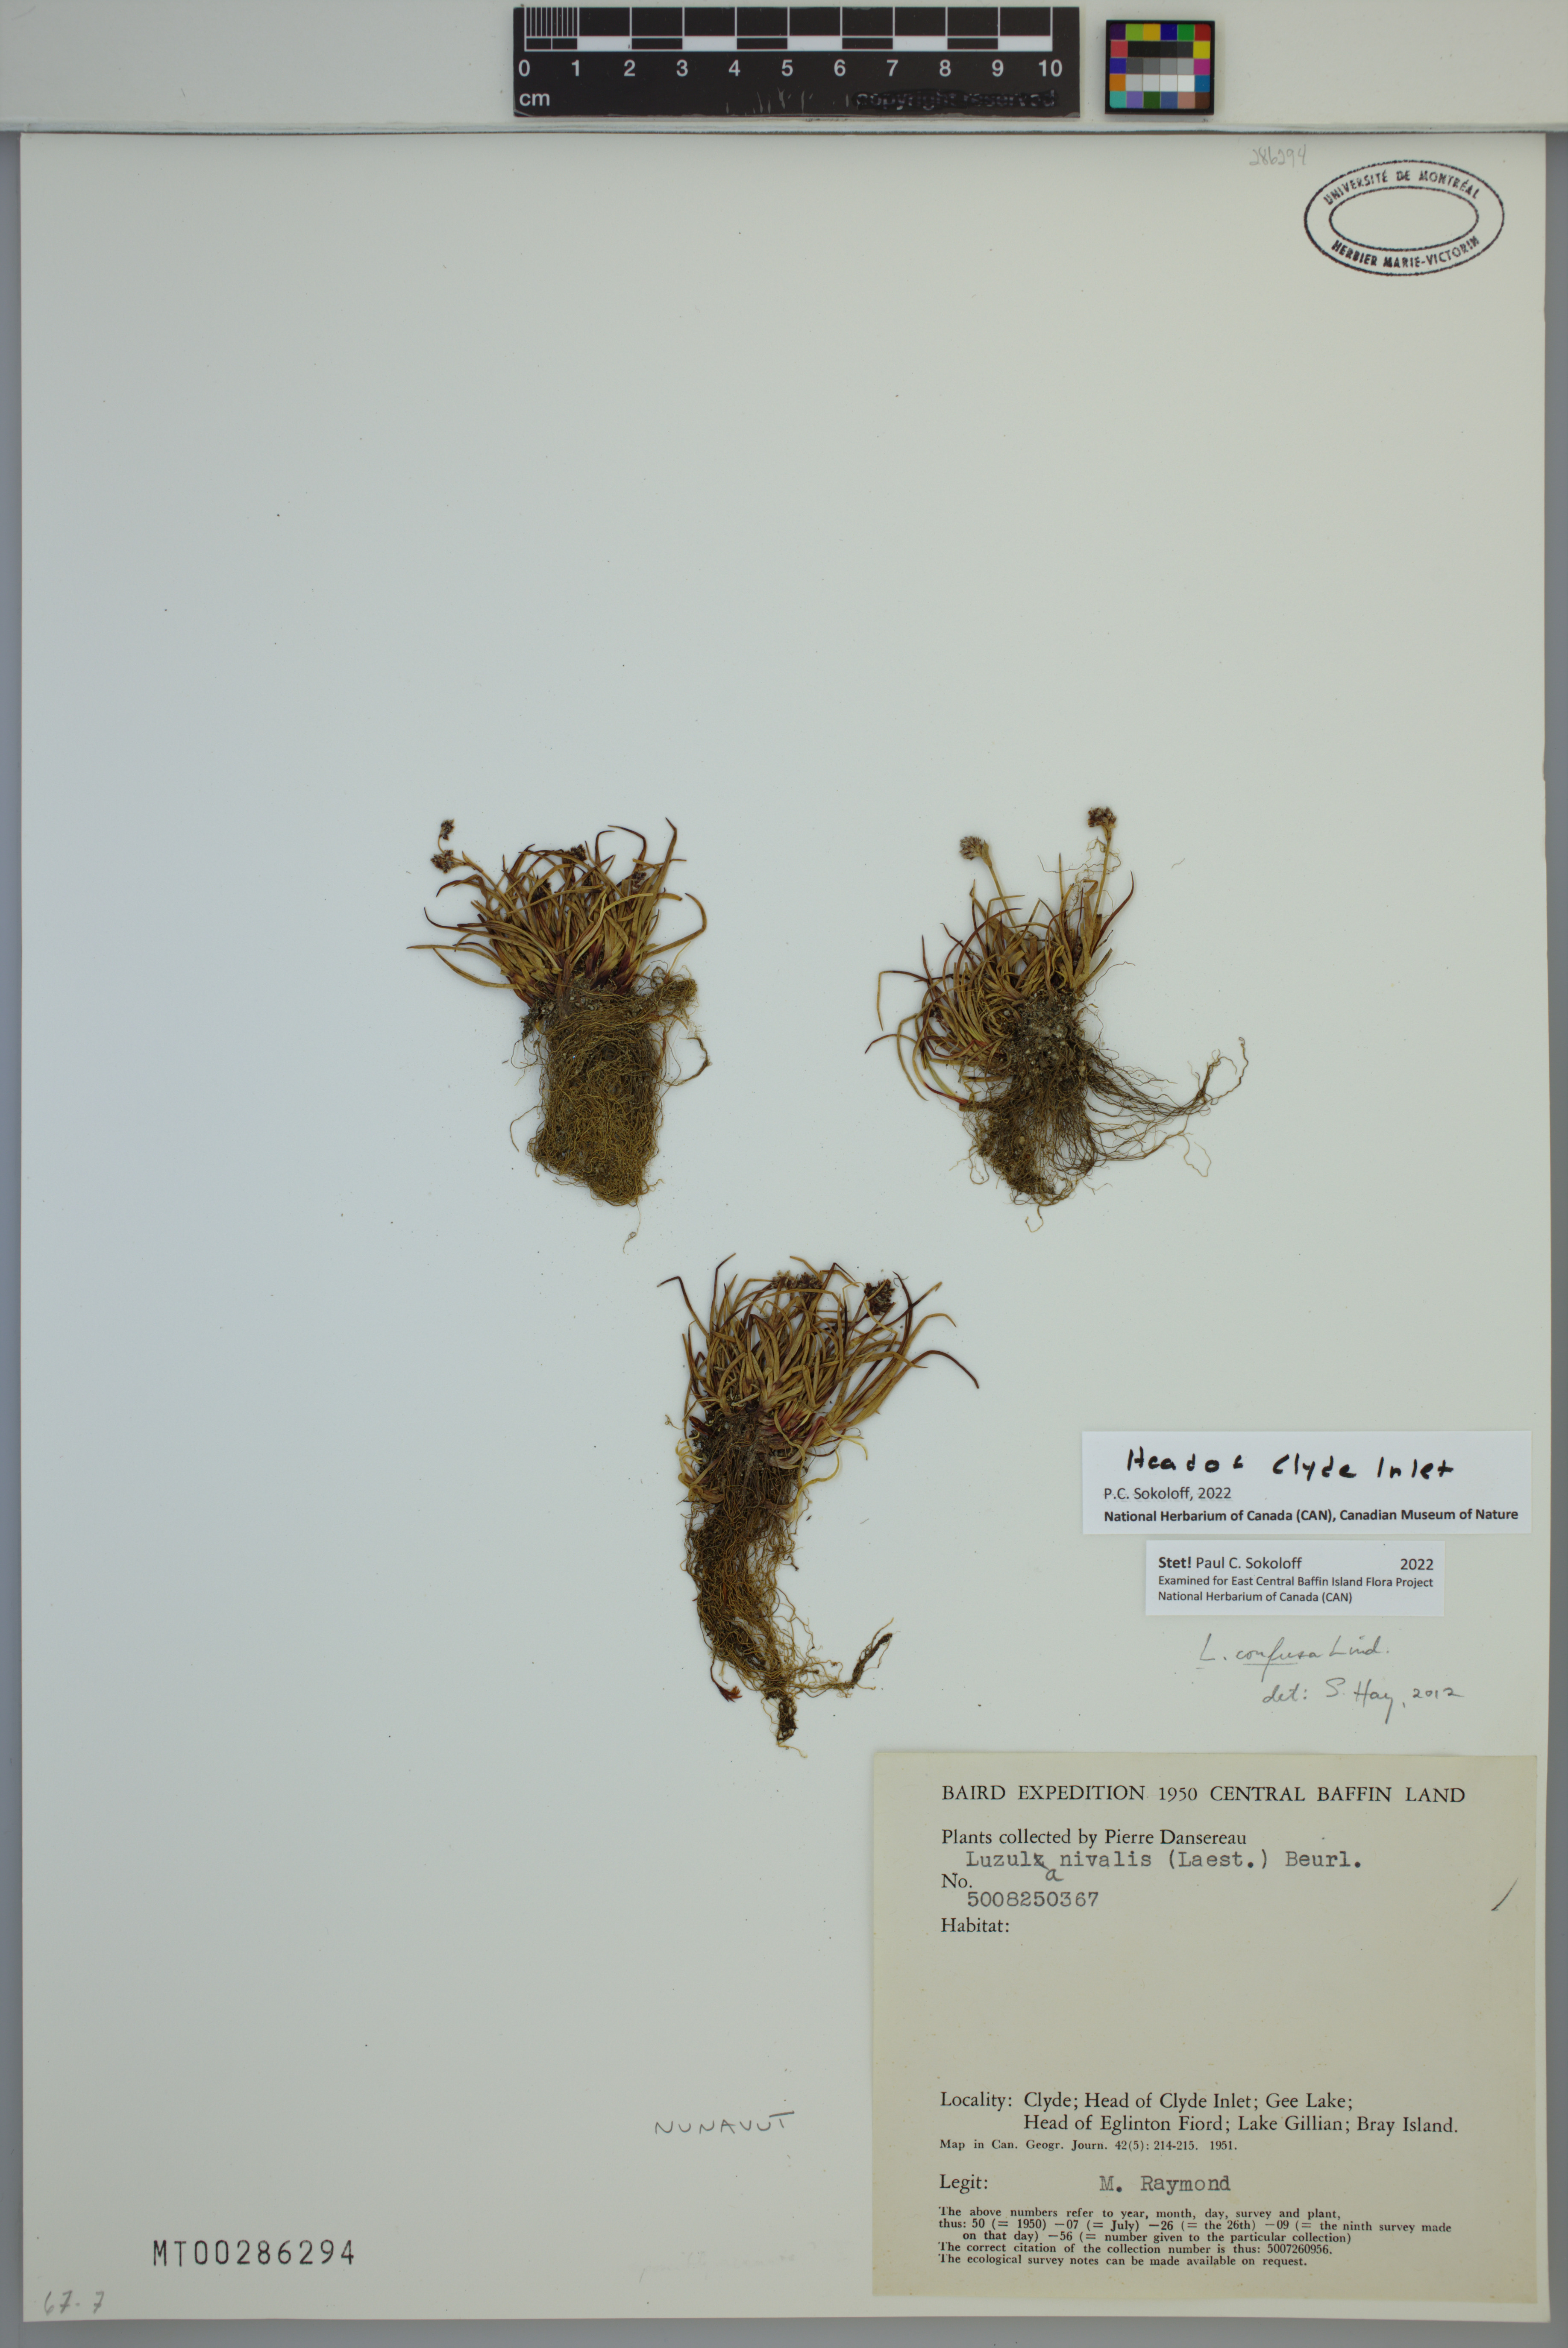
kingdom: Plantae
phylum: Tracheophyta
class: Liliopsida
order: Poales
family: Juncaceae
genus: Luzula
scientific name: Luzula confusa
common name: Northern wood rush
